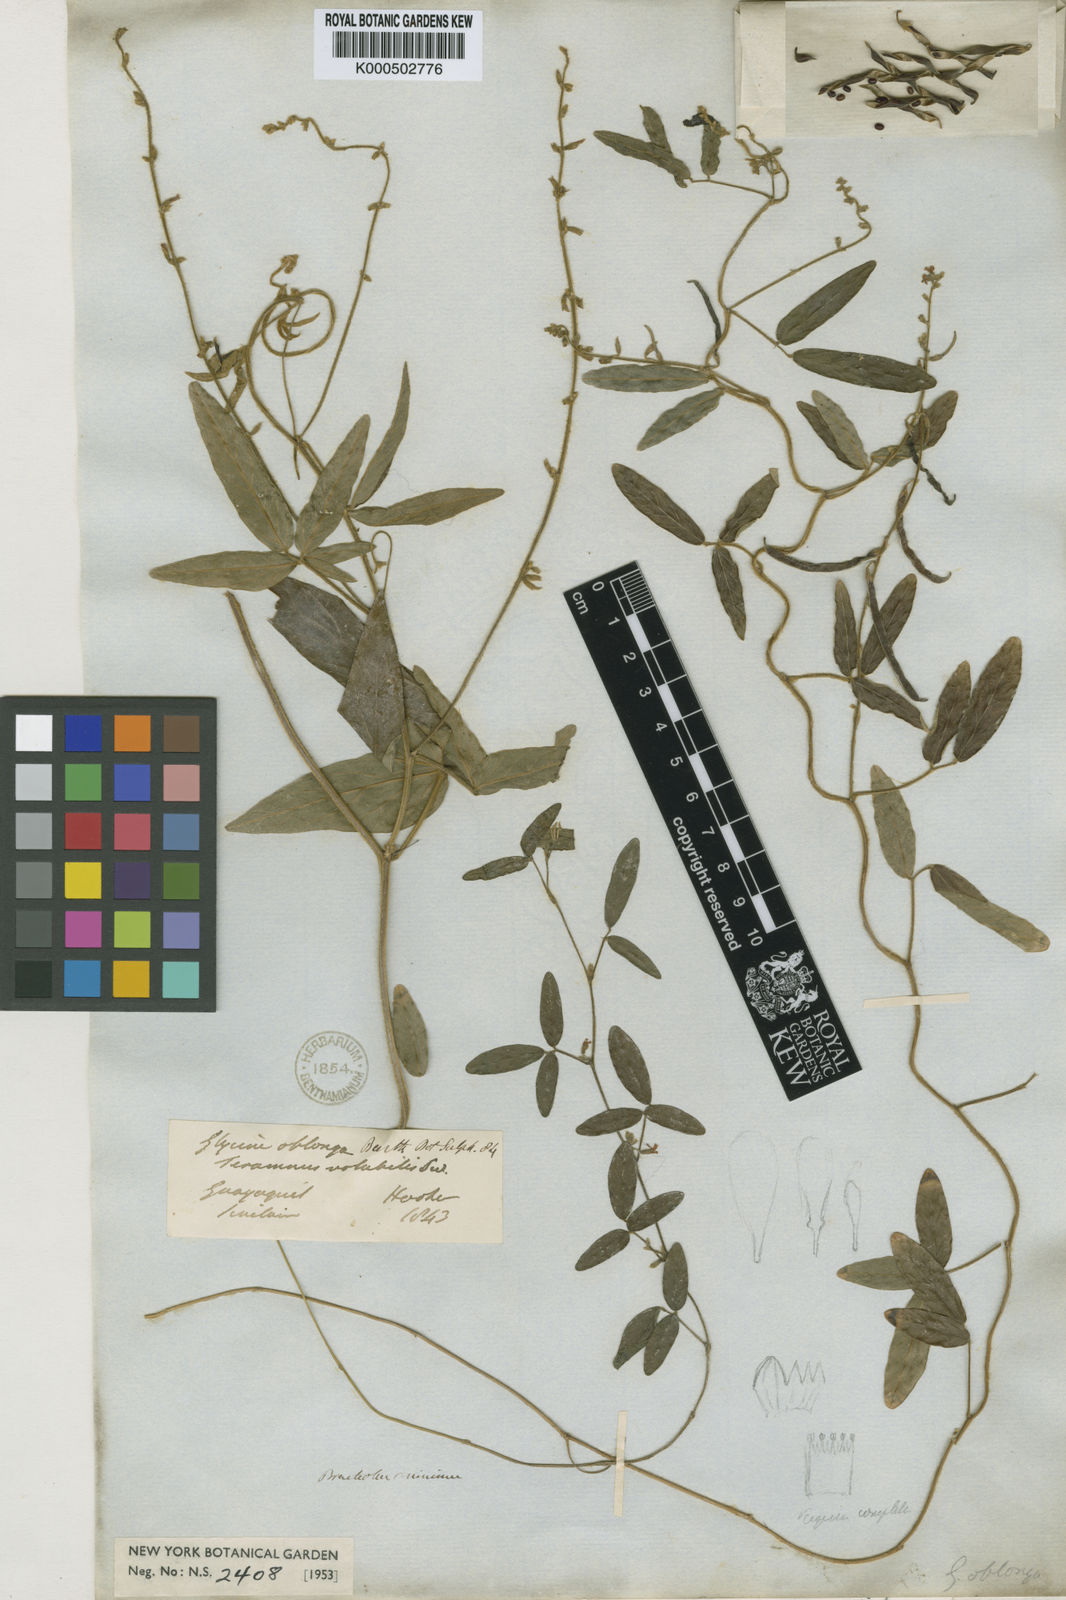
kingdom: Plantae
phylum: Tracheophyta
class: Magnoliopsida
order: Fabales
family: Fabaceae
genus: Teramnus
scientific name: Teramnus volubilis
